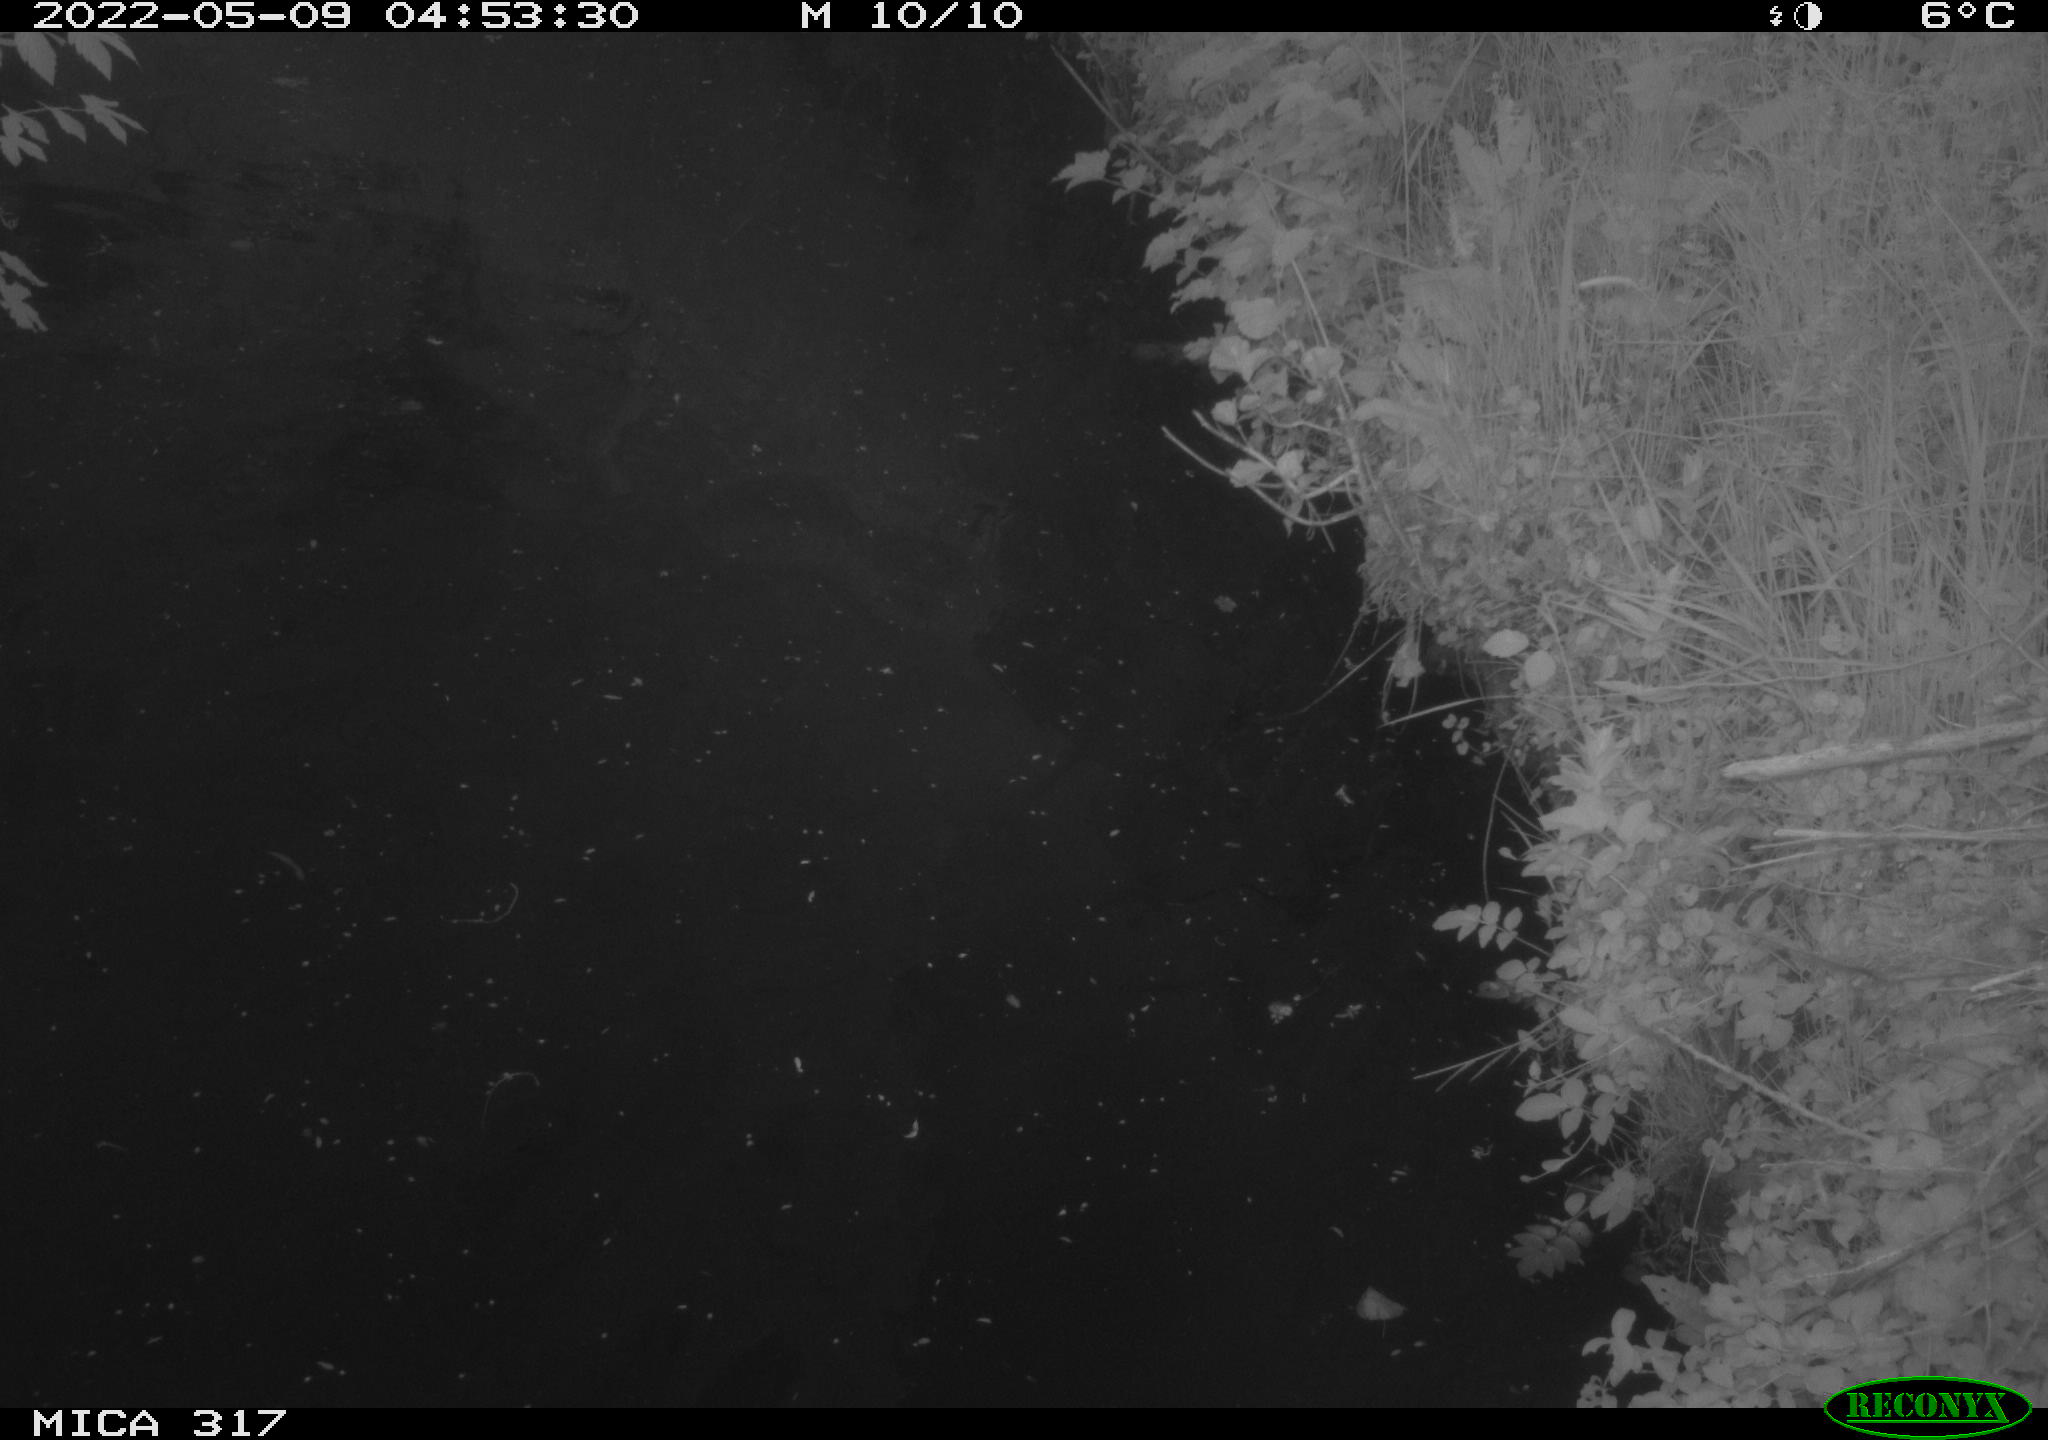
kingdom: Animalia
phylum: Chordata
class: Aves
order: Anseriformes
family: Anatidae
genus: Anas
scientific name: Anas platyrhynchos
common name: Mallard
